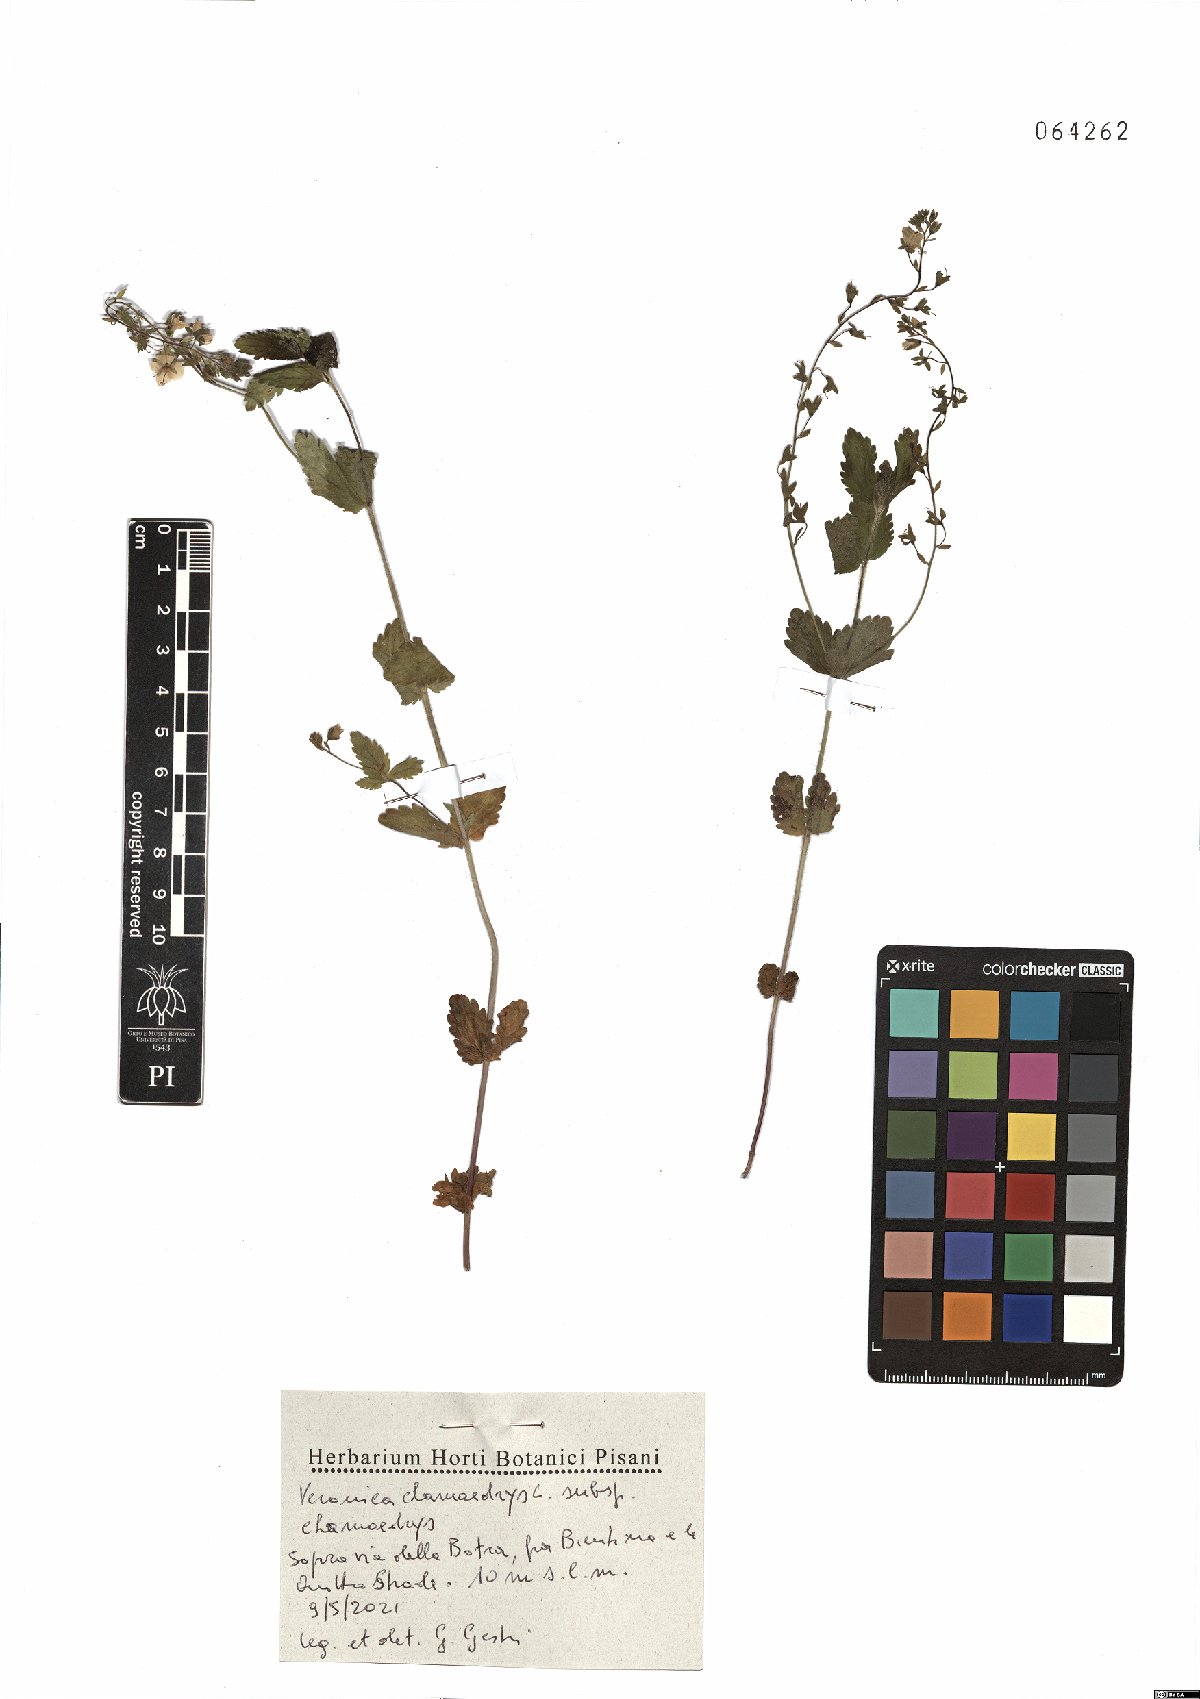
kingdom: Plantae
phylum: Tracheophyta
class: Magnoliopsida
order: Lamiales
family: Plantaginaceae
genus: Veronica
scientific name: Veronica chamaedrys
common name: Germander speedwell
